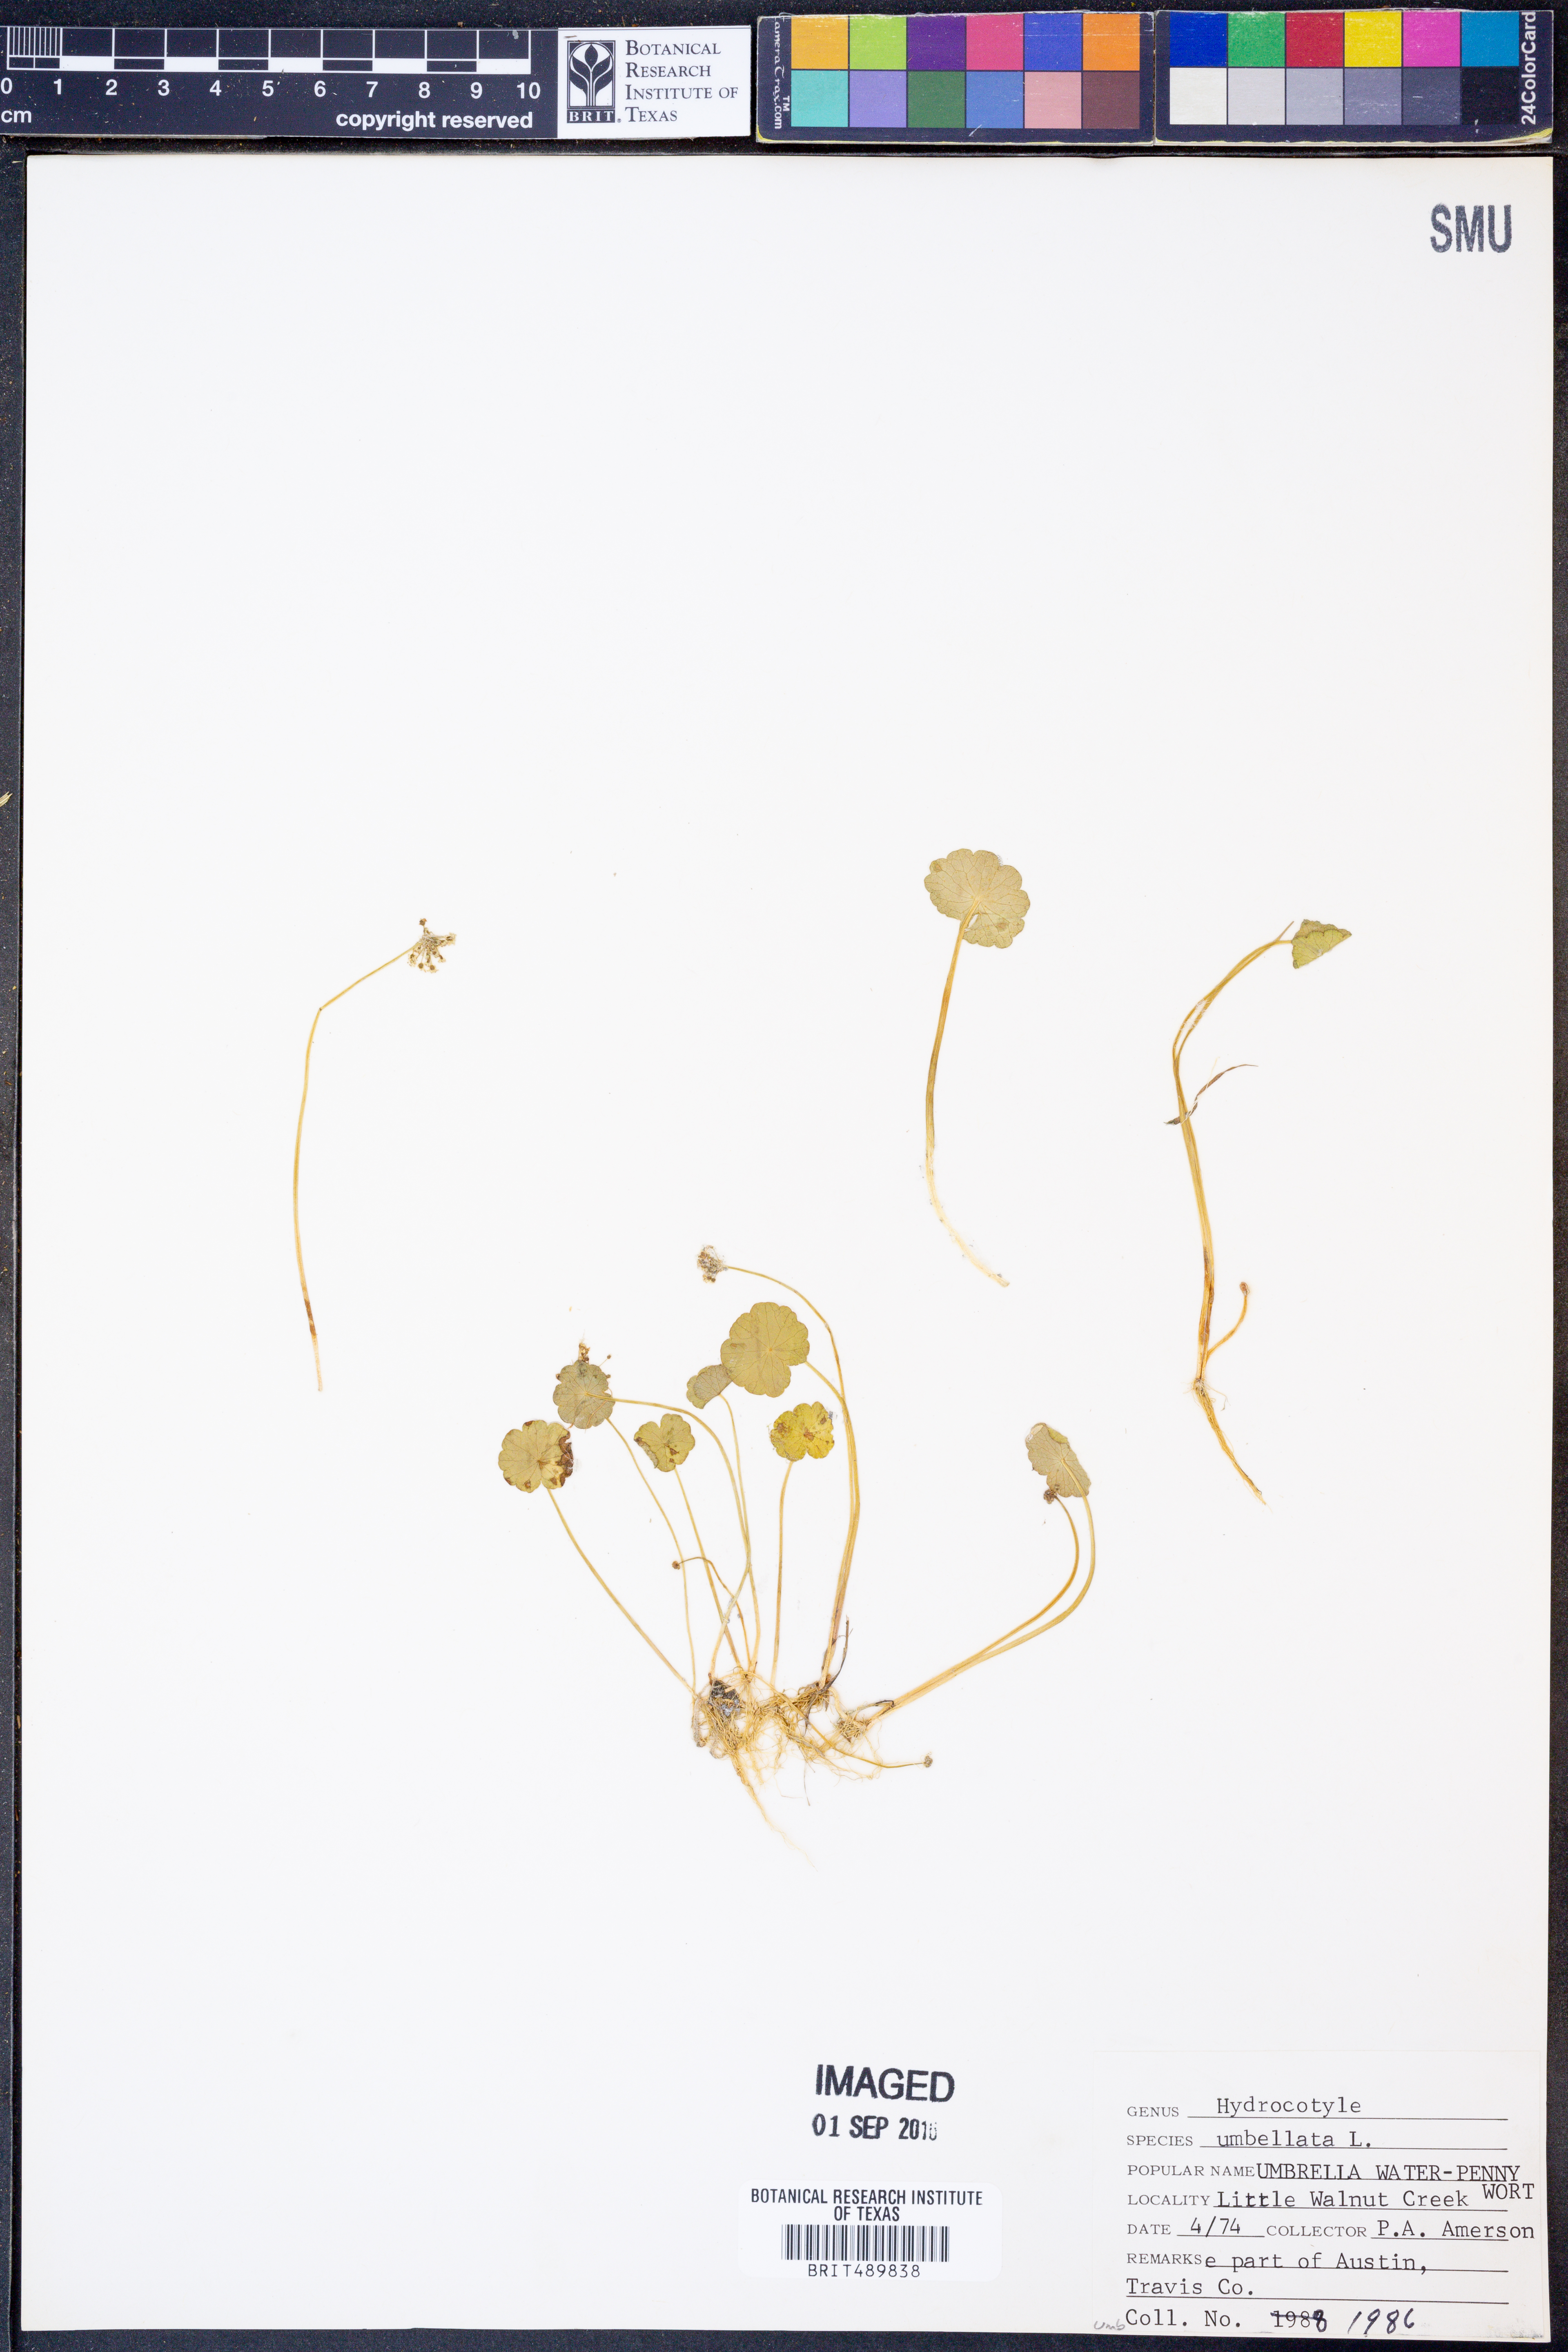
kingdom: Plantae
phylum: Tracheophyta
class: Magnoliopsida
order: Apiales
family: Araliaceae
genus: Hydrocotyle
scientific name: Hydrocotyle umbellata
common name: Water pennywort
